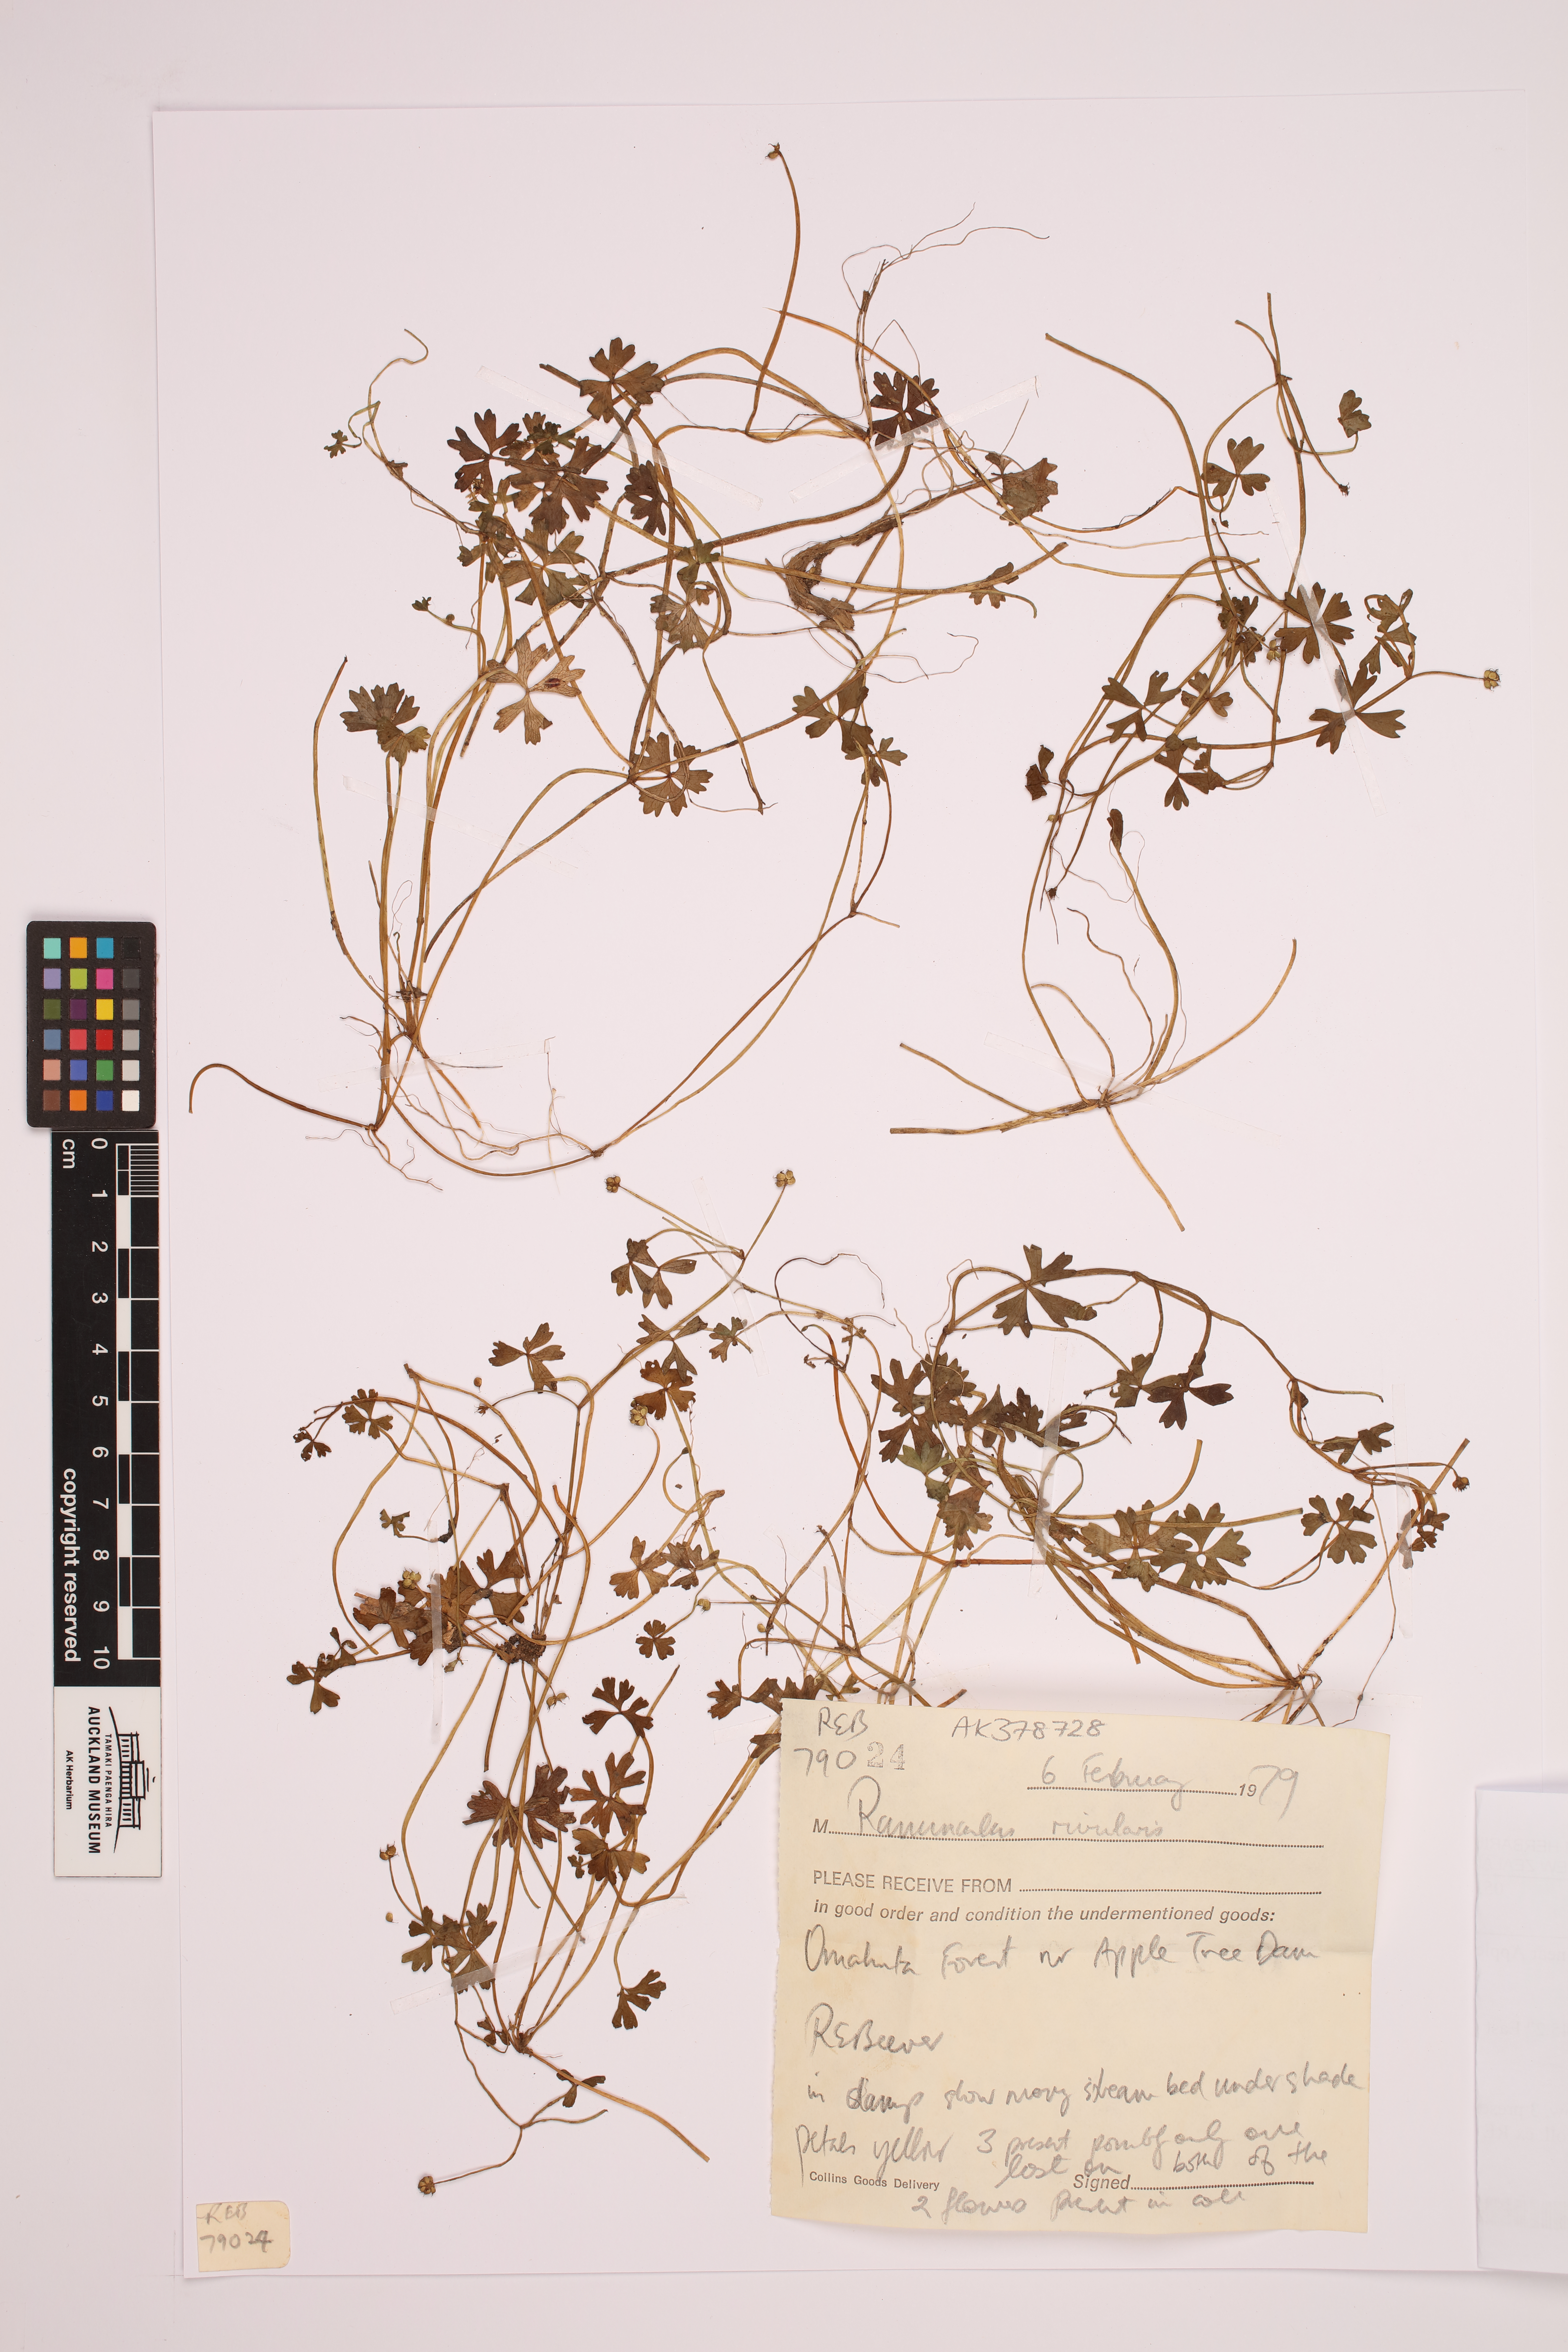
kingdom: Plantae
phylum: Tracheophyta
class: Magnoliopsida
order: Ranunculales
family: Ranunculaceae
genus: Ranunculus
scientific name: Ranunculus amphitrichus
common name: Small river buttercup
